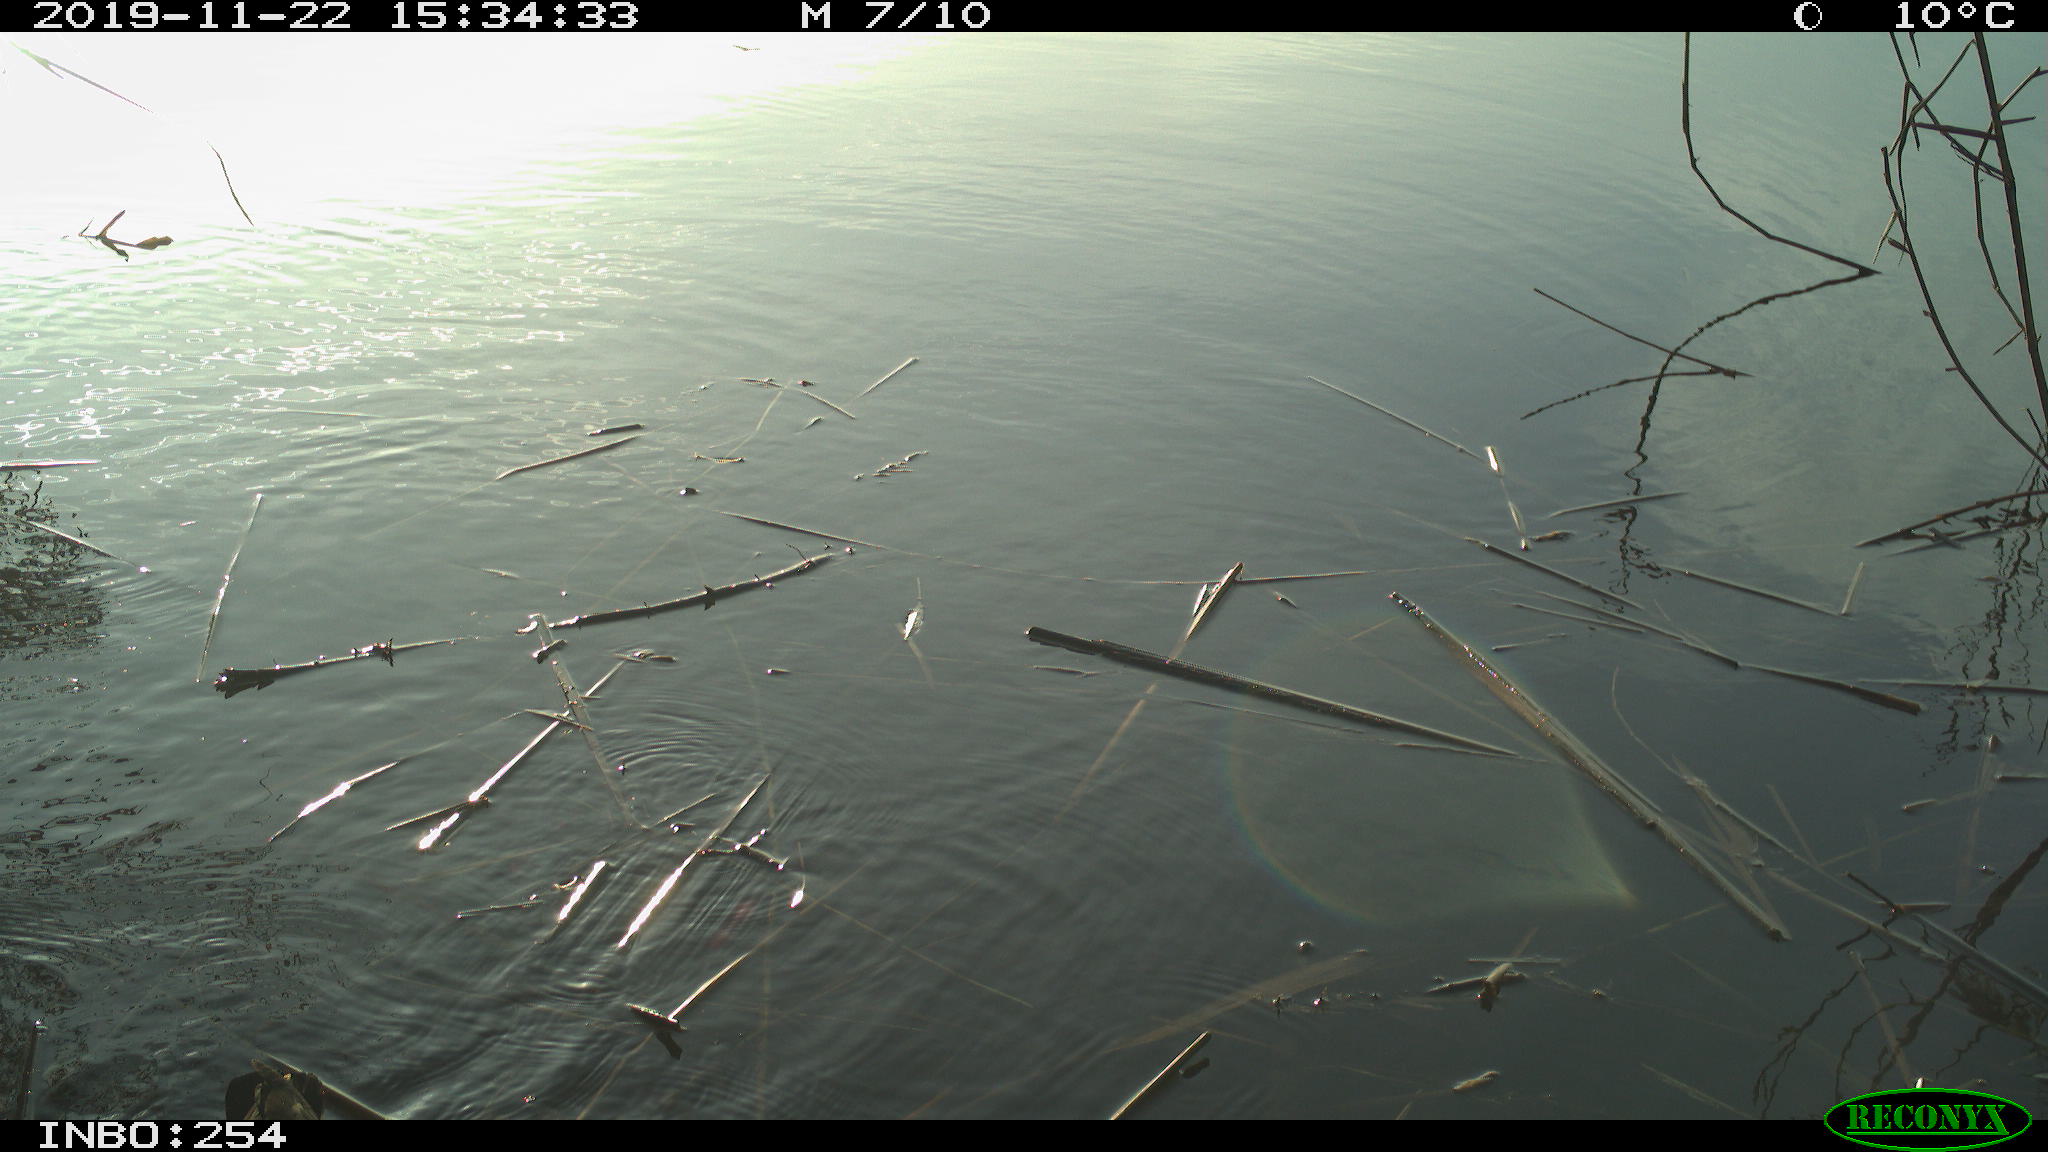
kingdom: Animalia
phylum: Chordata
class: Aves
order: Gruiformes
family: Rallidae
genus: Gallinula
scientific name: Gallinula chloropus
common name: Common moorhen
